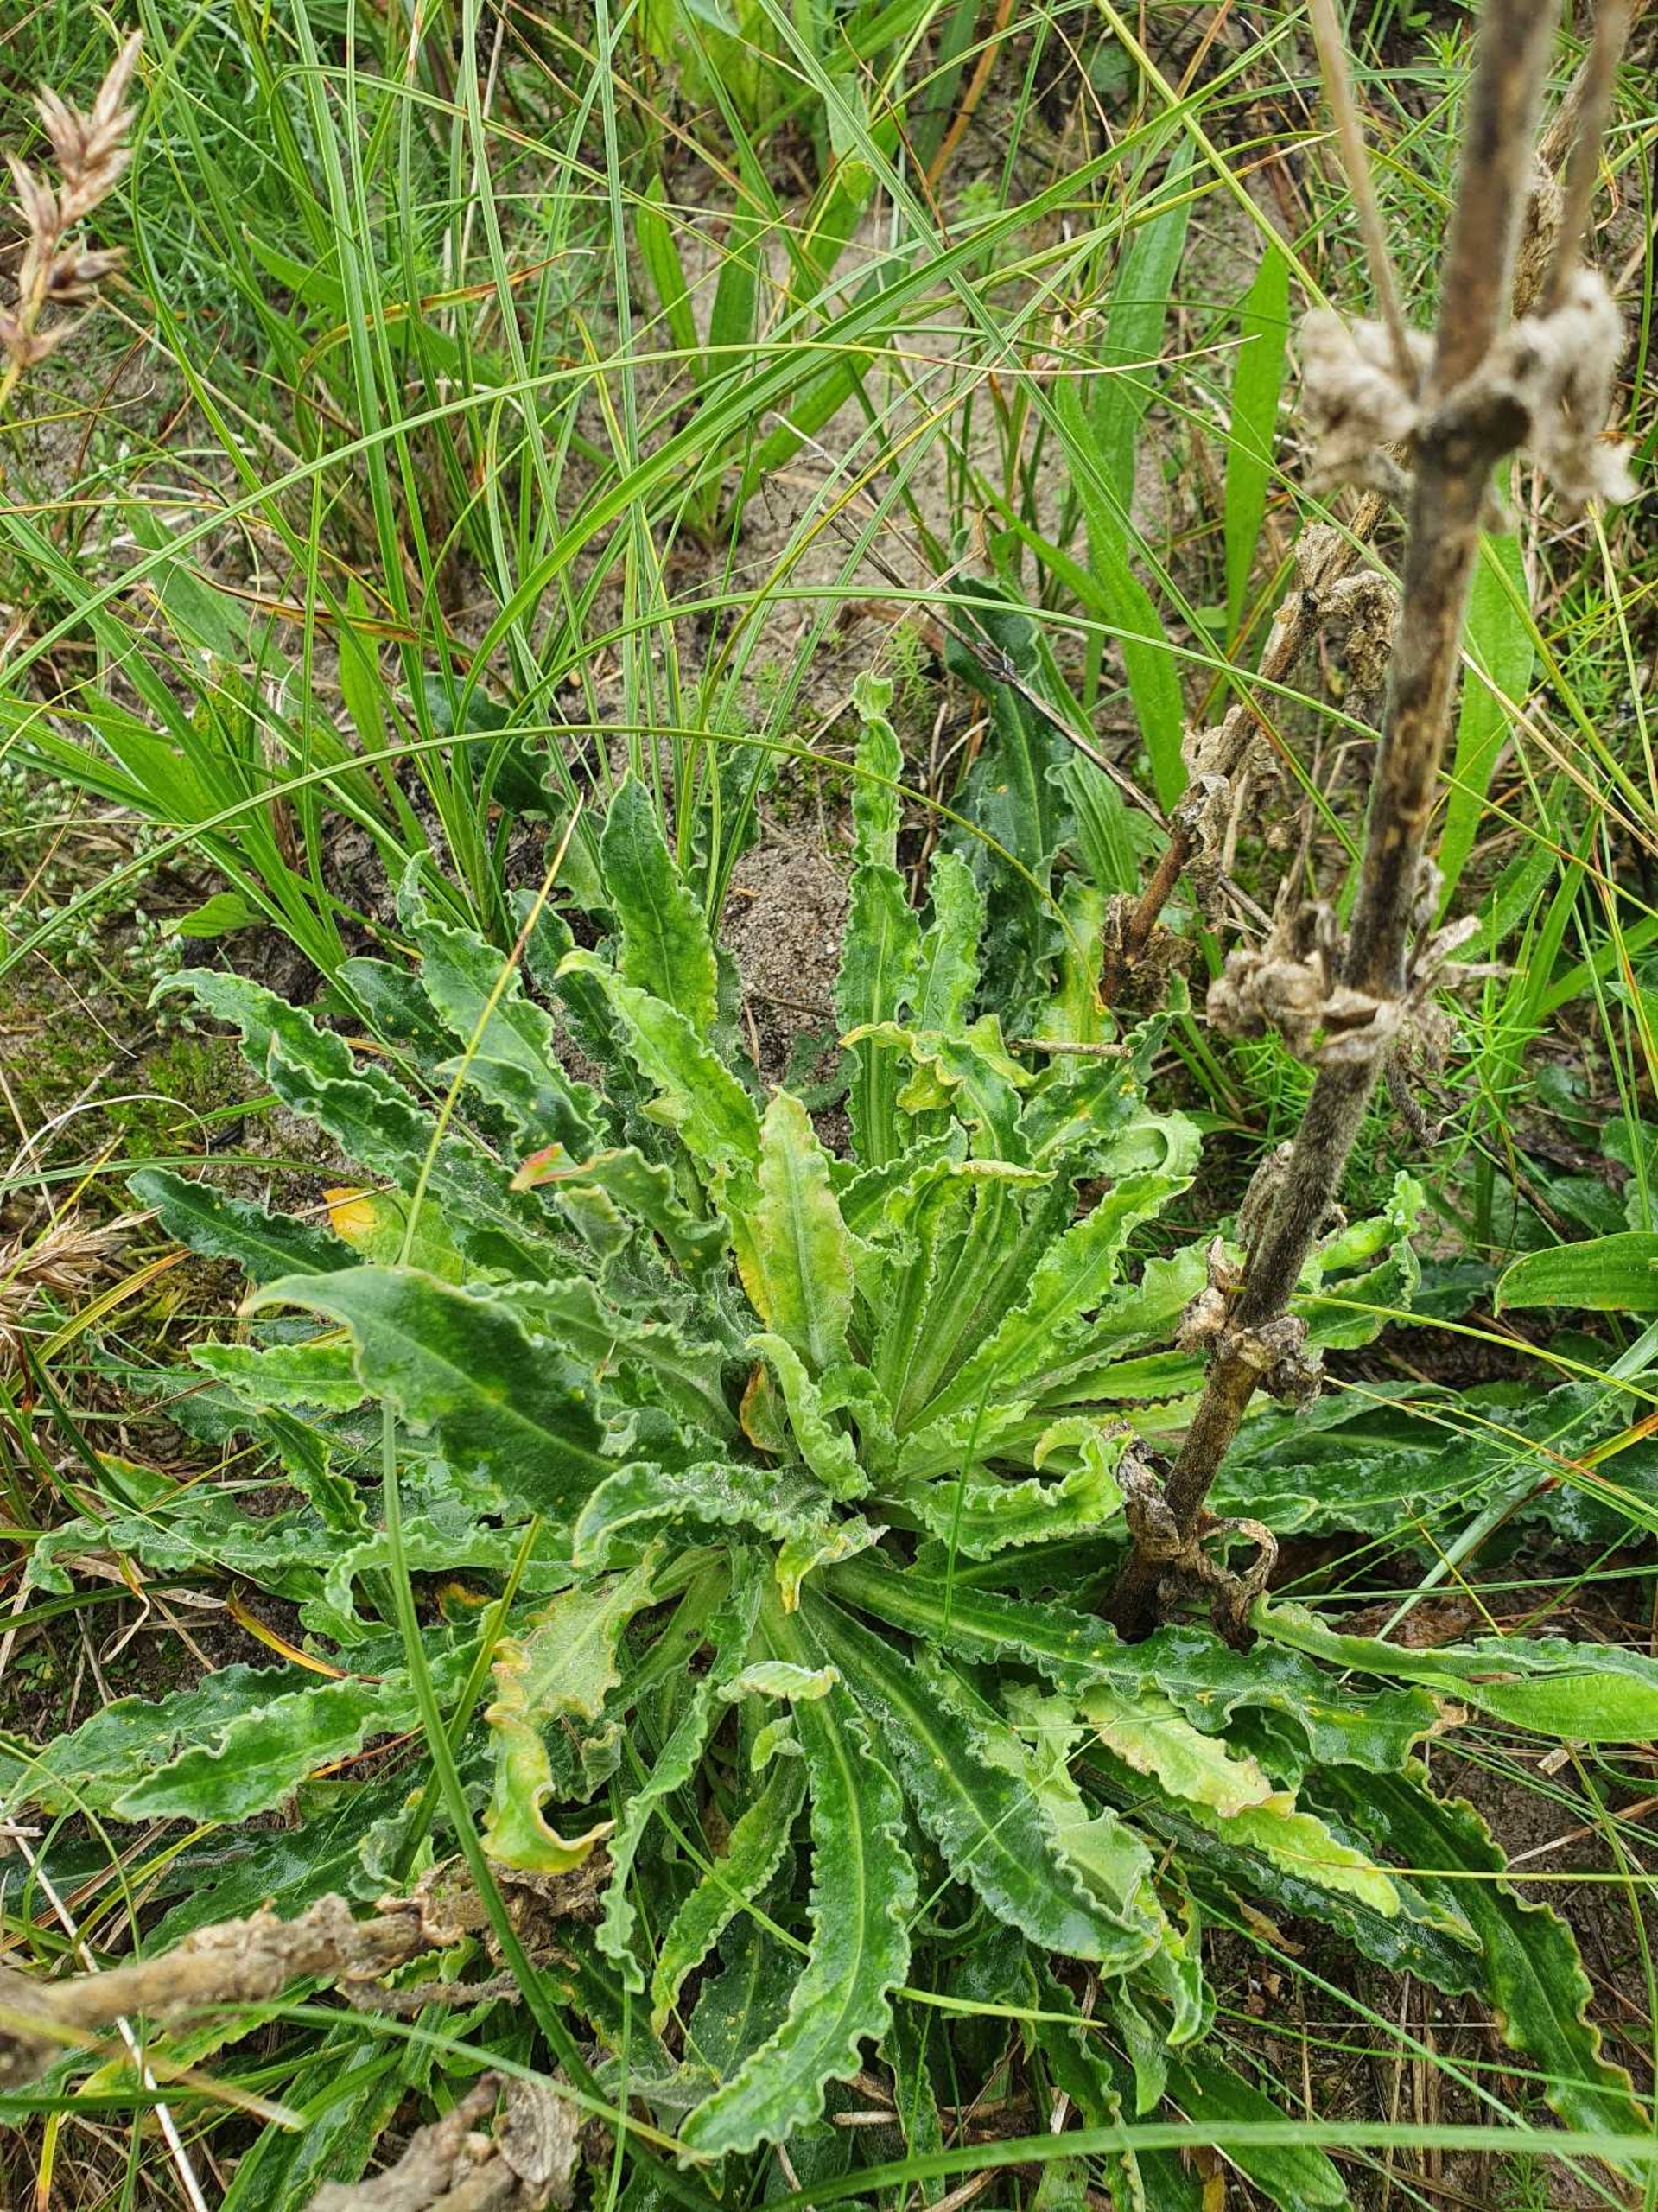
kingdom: Plantae
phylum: Tracheophyta
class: Magnoliopsida
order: Caryophyllales
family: Caryophyllaceae
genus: Silene
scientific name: Silene viscosa
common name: Klæbrig limurt
